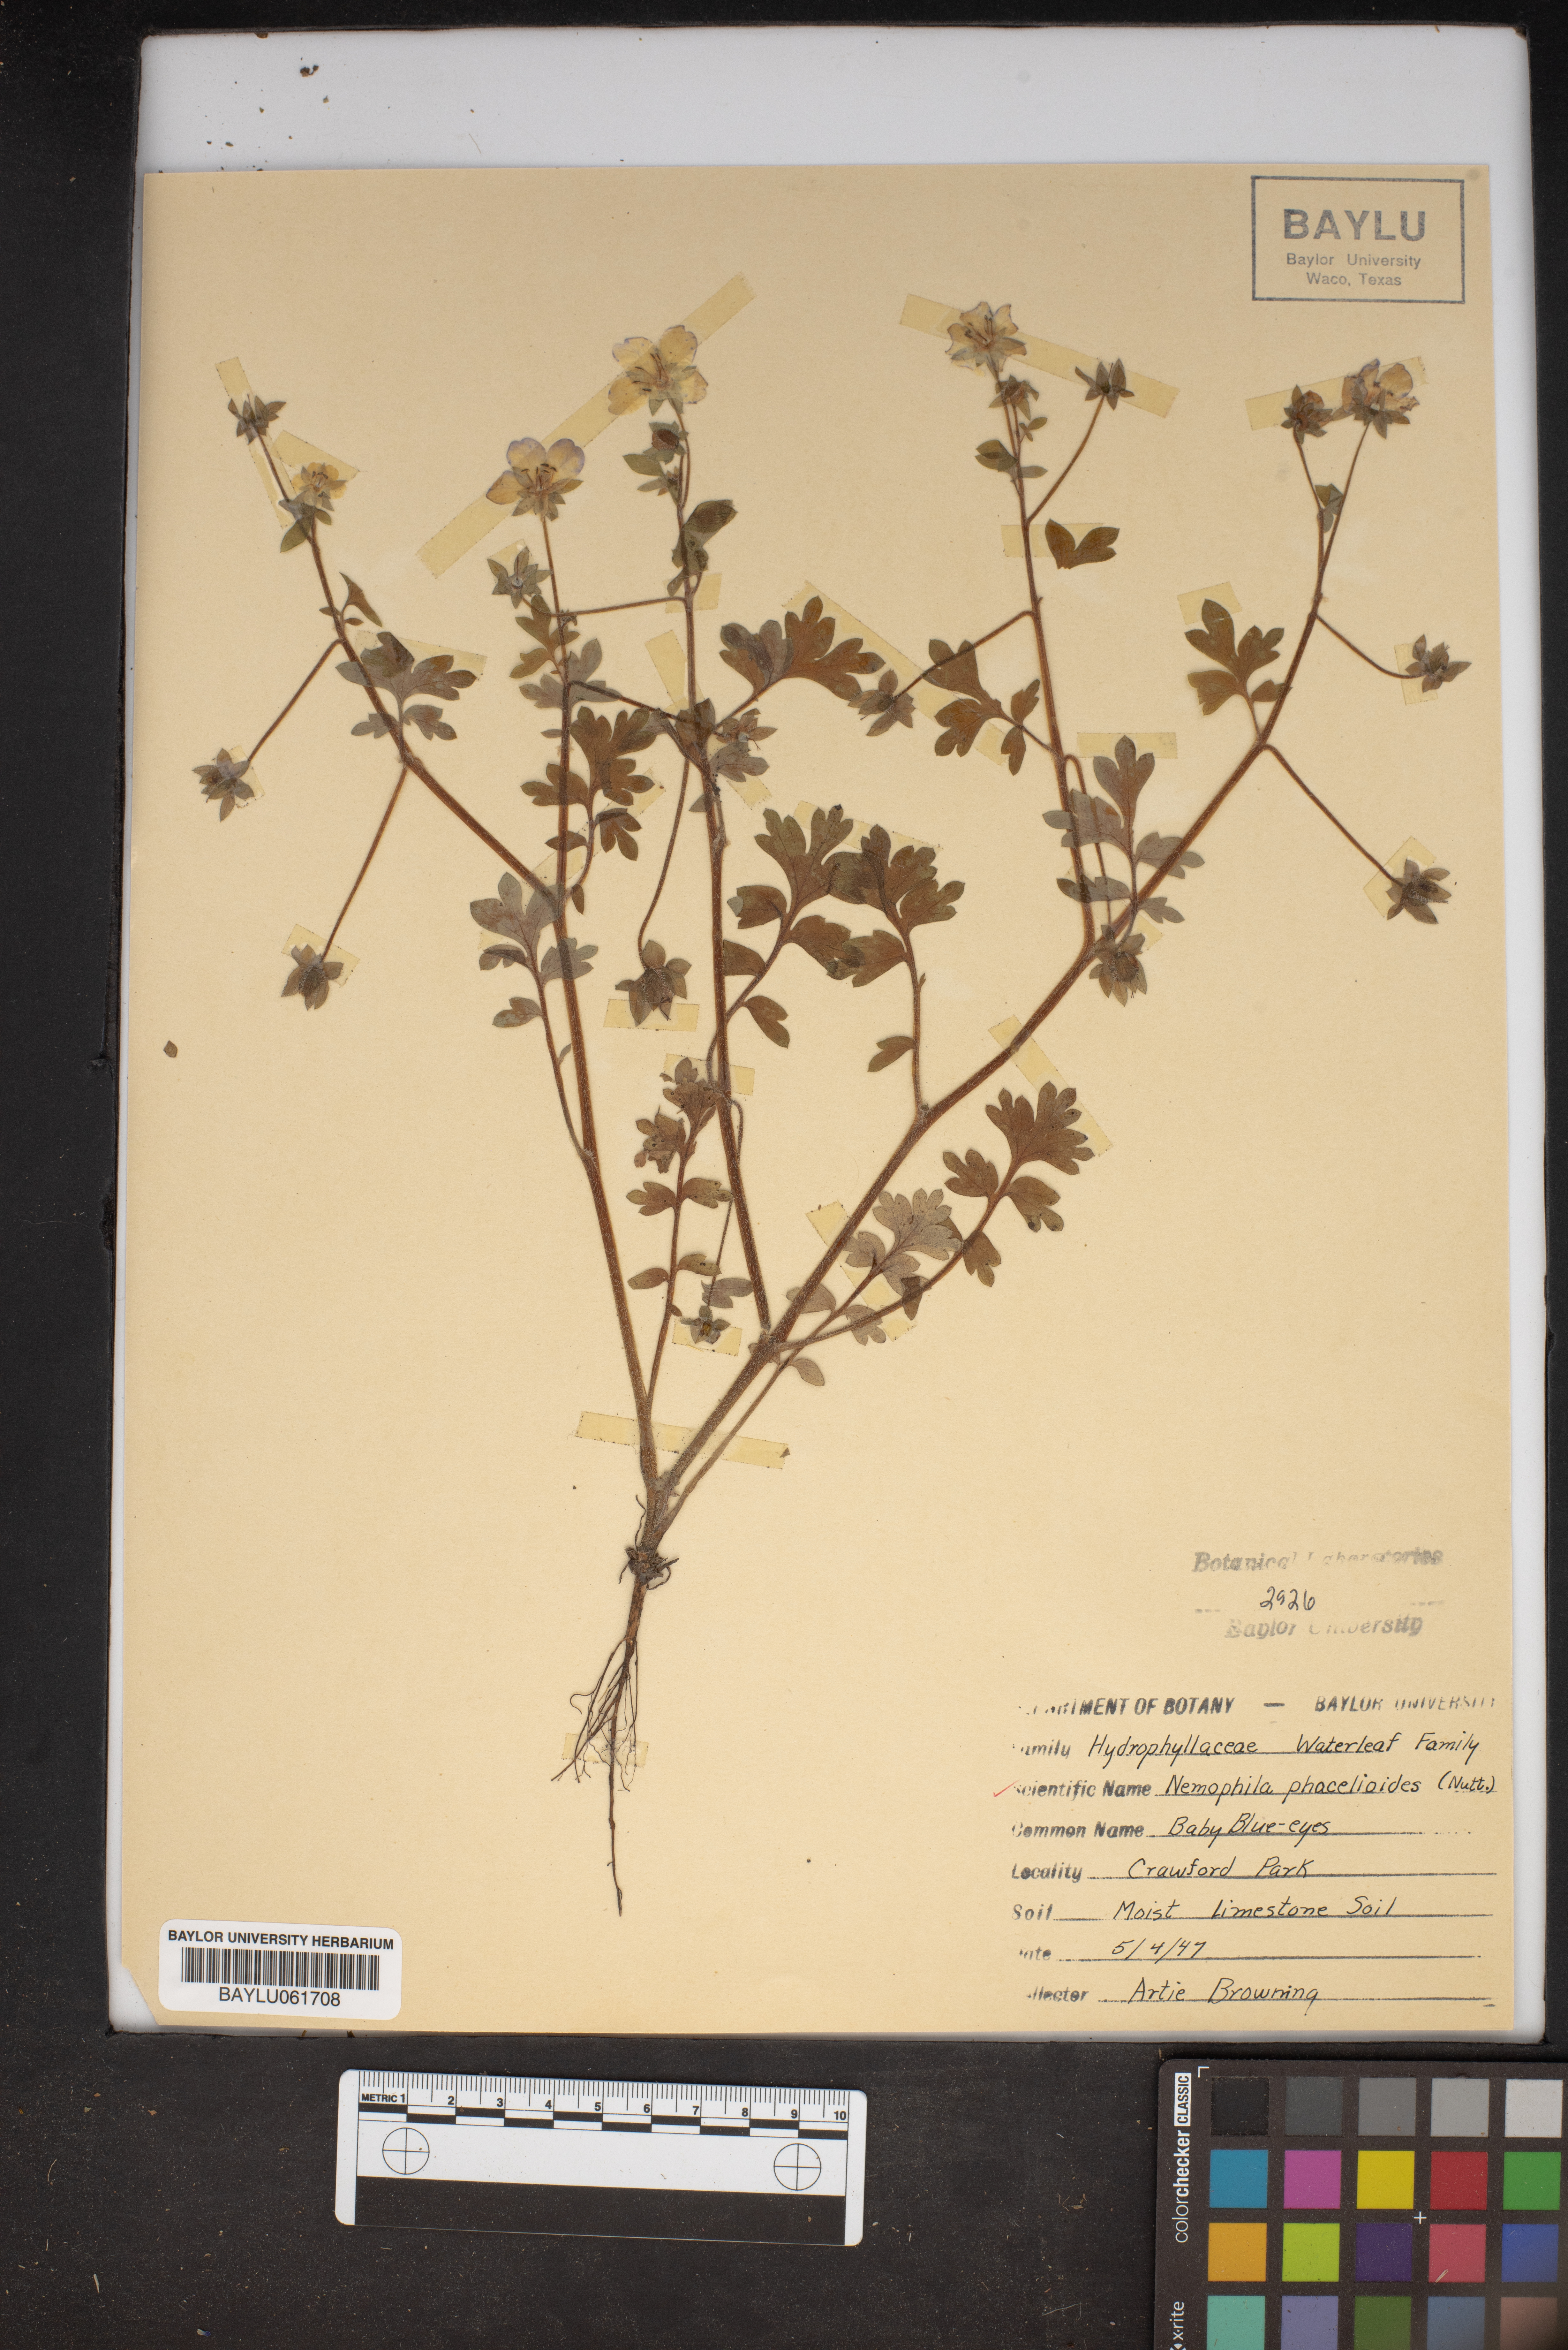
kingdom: Plantae
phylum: Tracheophyta
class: Magnoliopsida
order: Boraginales
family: Hydrophyllaceae
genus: Nemophila
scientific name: Nemophila phacelioides
